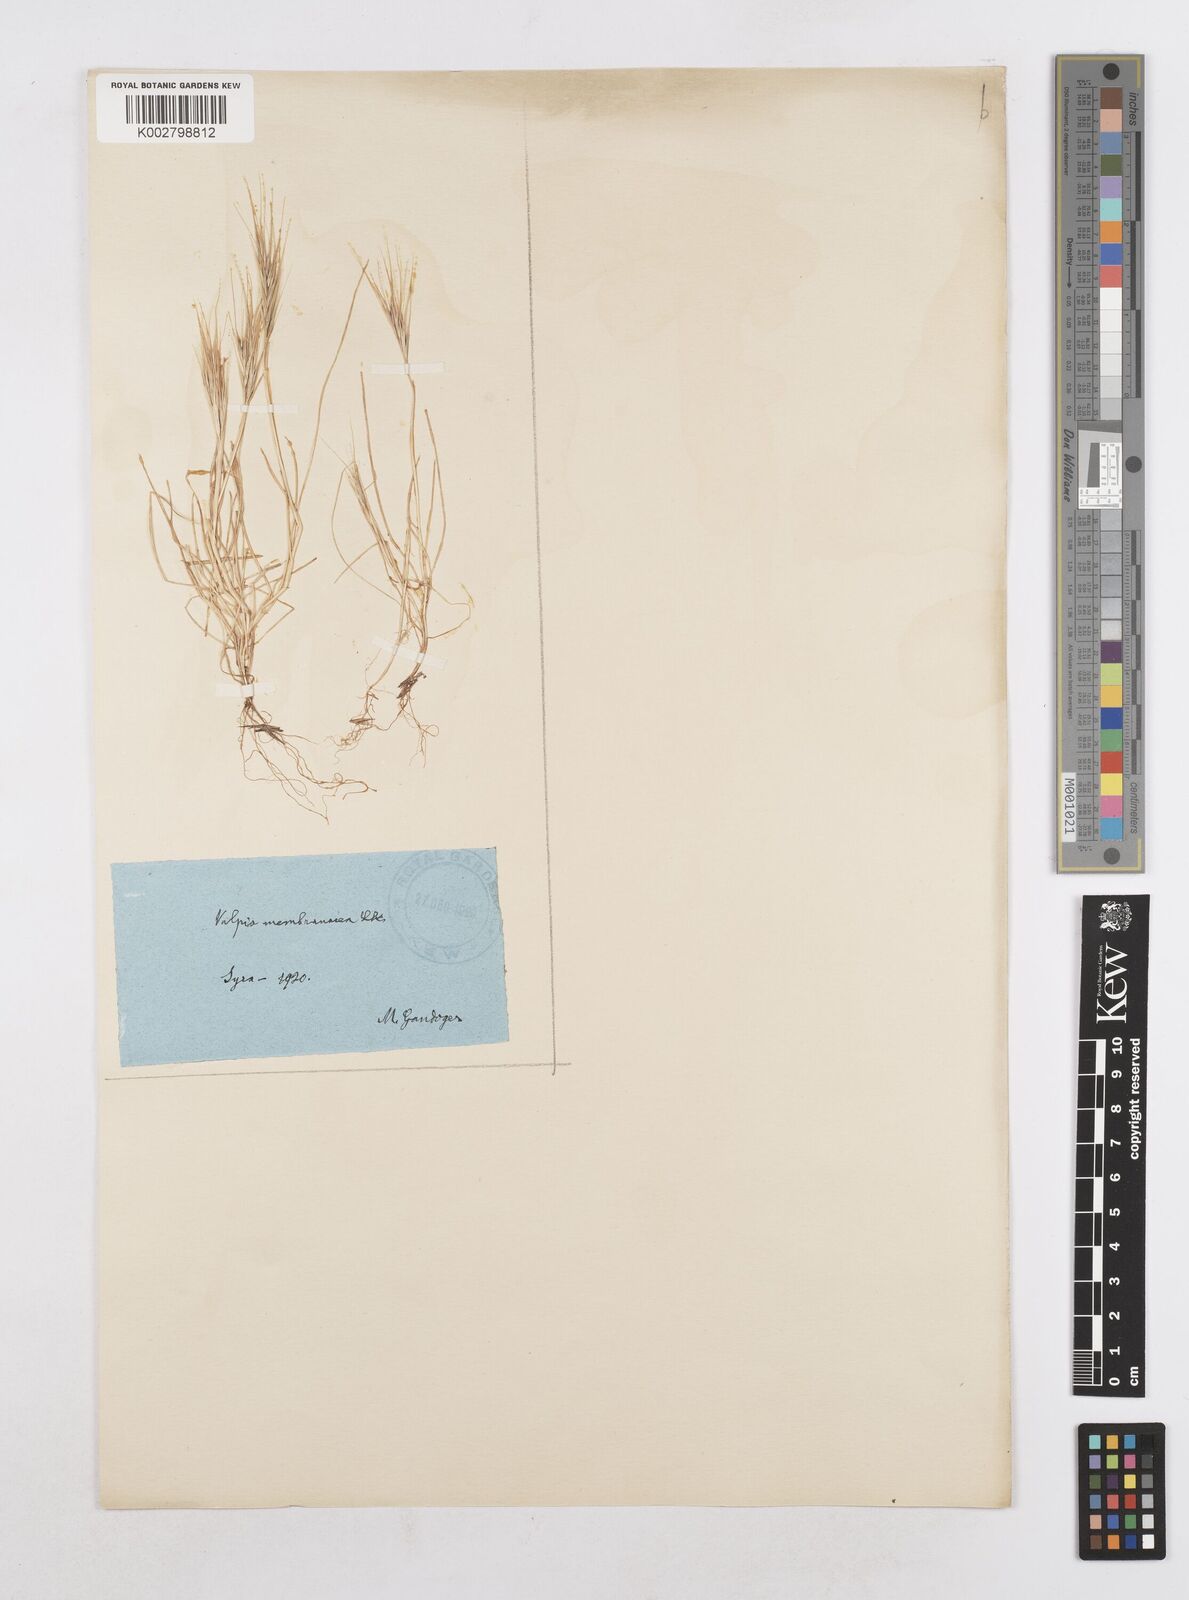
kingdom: Plantae
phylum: Tracheophyta
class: Liliopsida
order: Poales
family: Poaceae
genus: Festuca
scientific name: Festuca fasciculata
